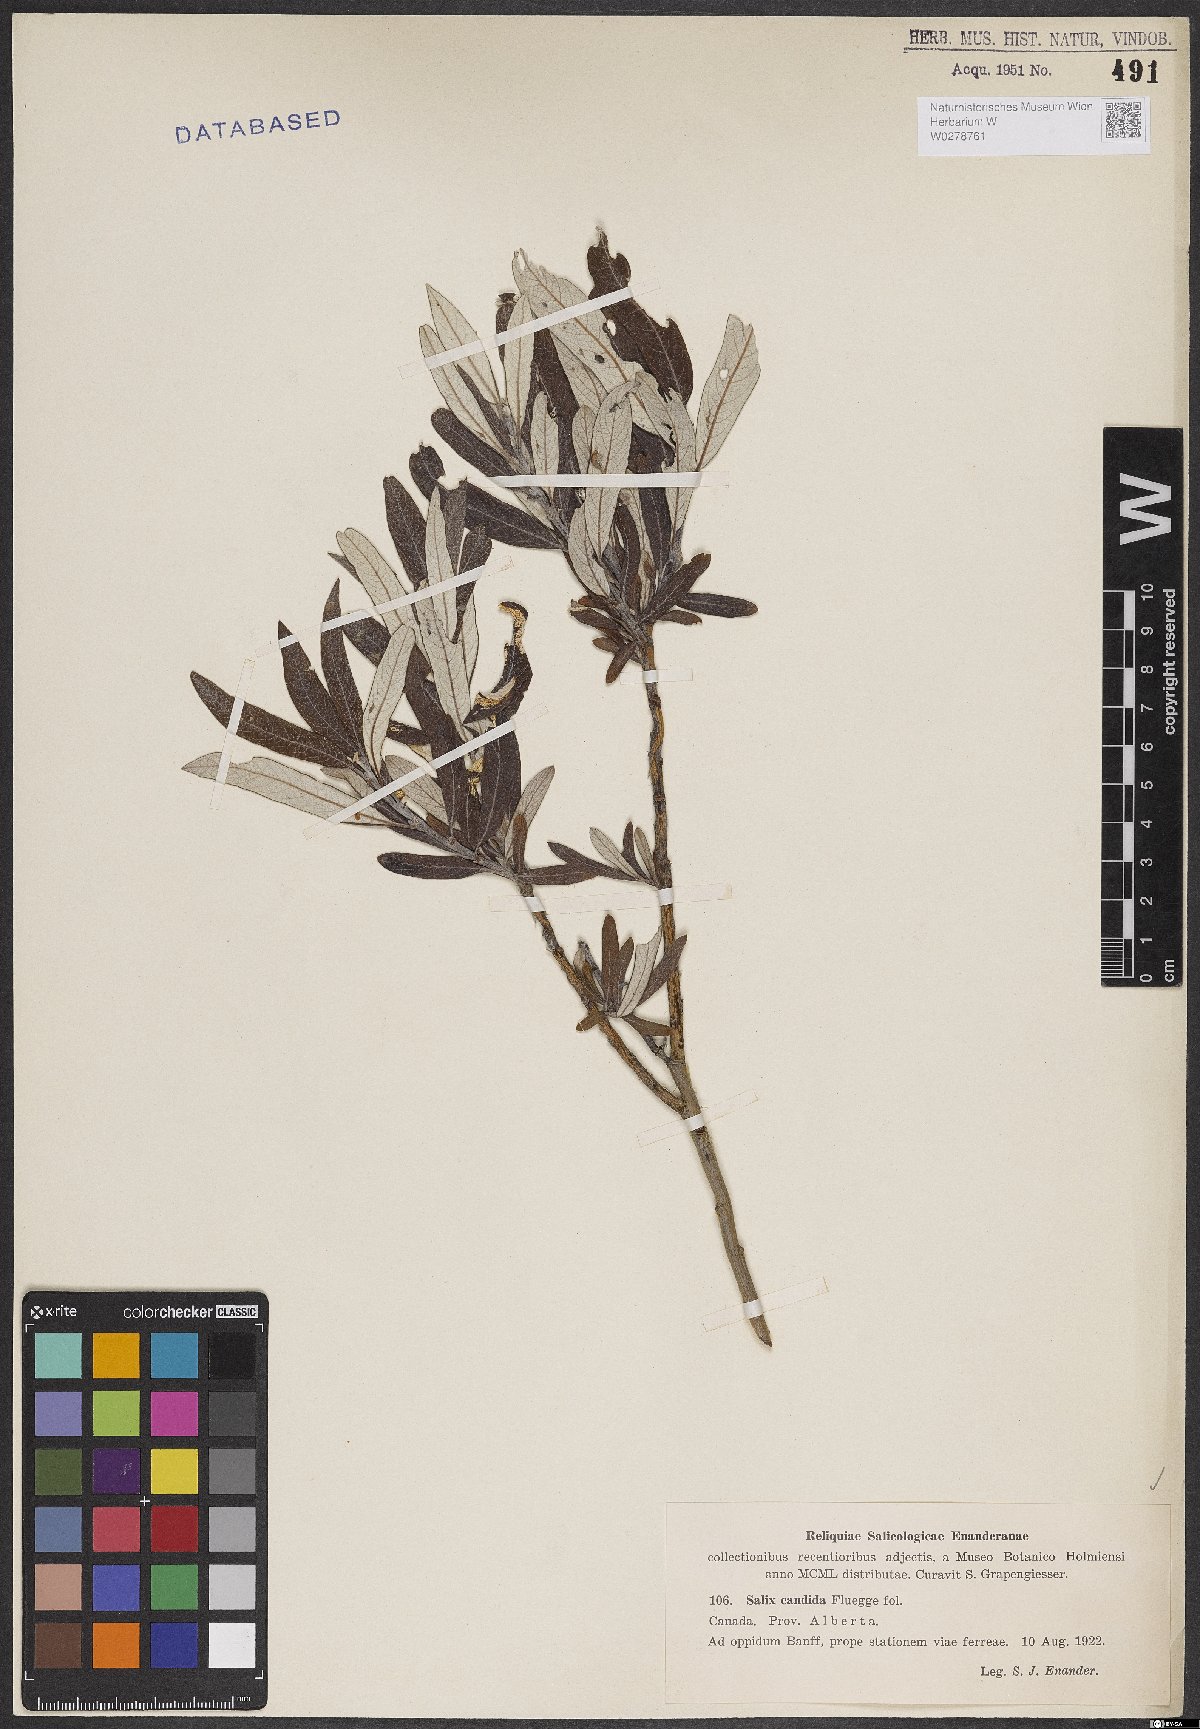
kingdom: Plantae
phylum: Tracheophyta
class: Magnoliopsida
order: Malpighiales
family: Salicaceae
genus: Salix
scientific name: Salix candida
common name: Hoary willow
